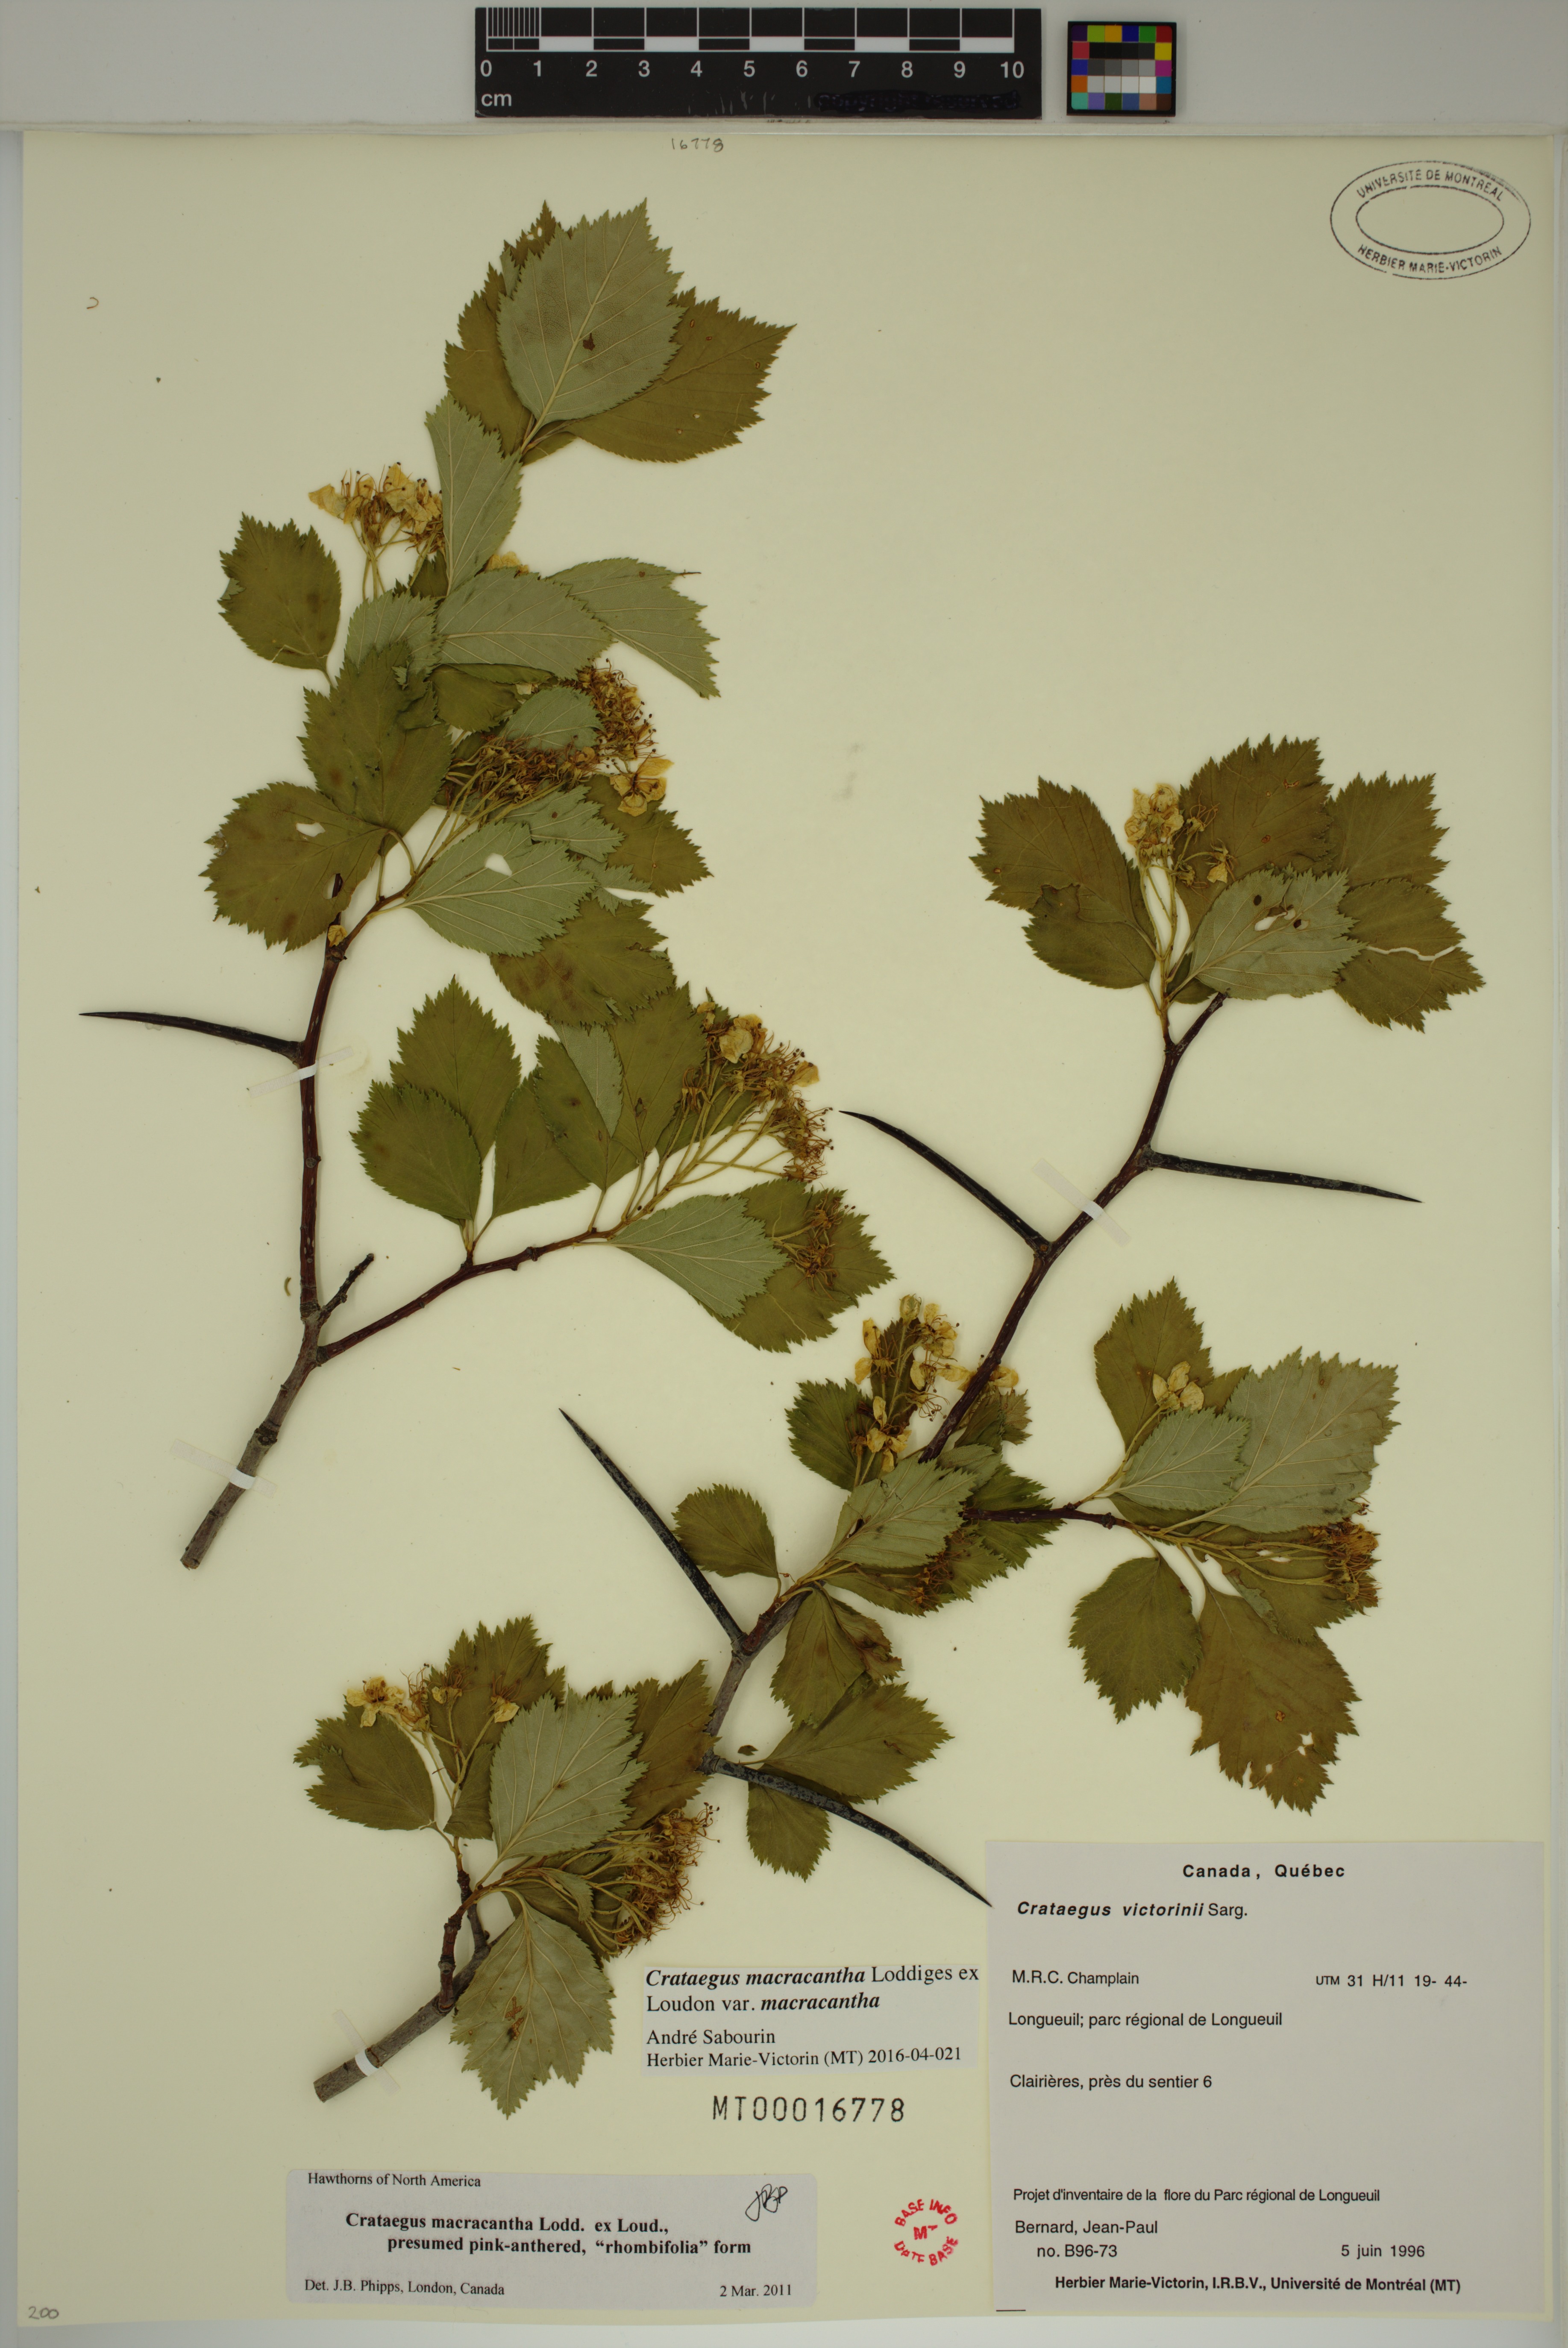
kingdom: Plantae
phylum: Tracheophyta
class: Magnoliopsida
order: Rosales
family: Rosaceae
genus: Crataegus
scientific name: Crataegus macracantha
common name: Large-thorn hawthorn
